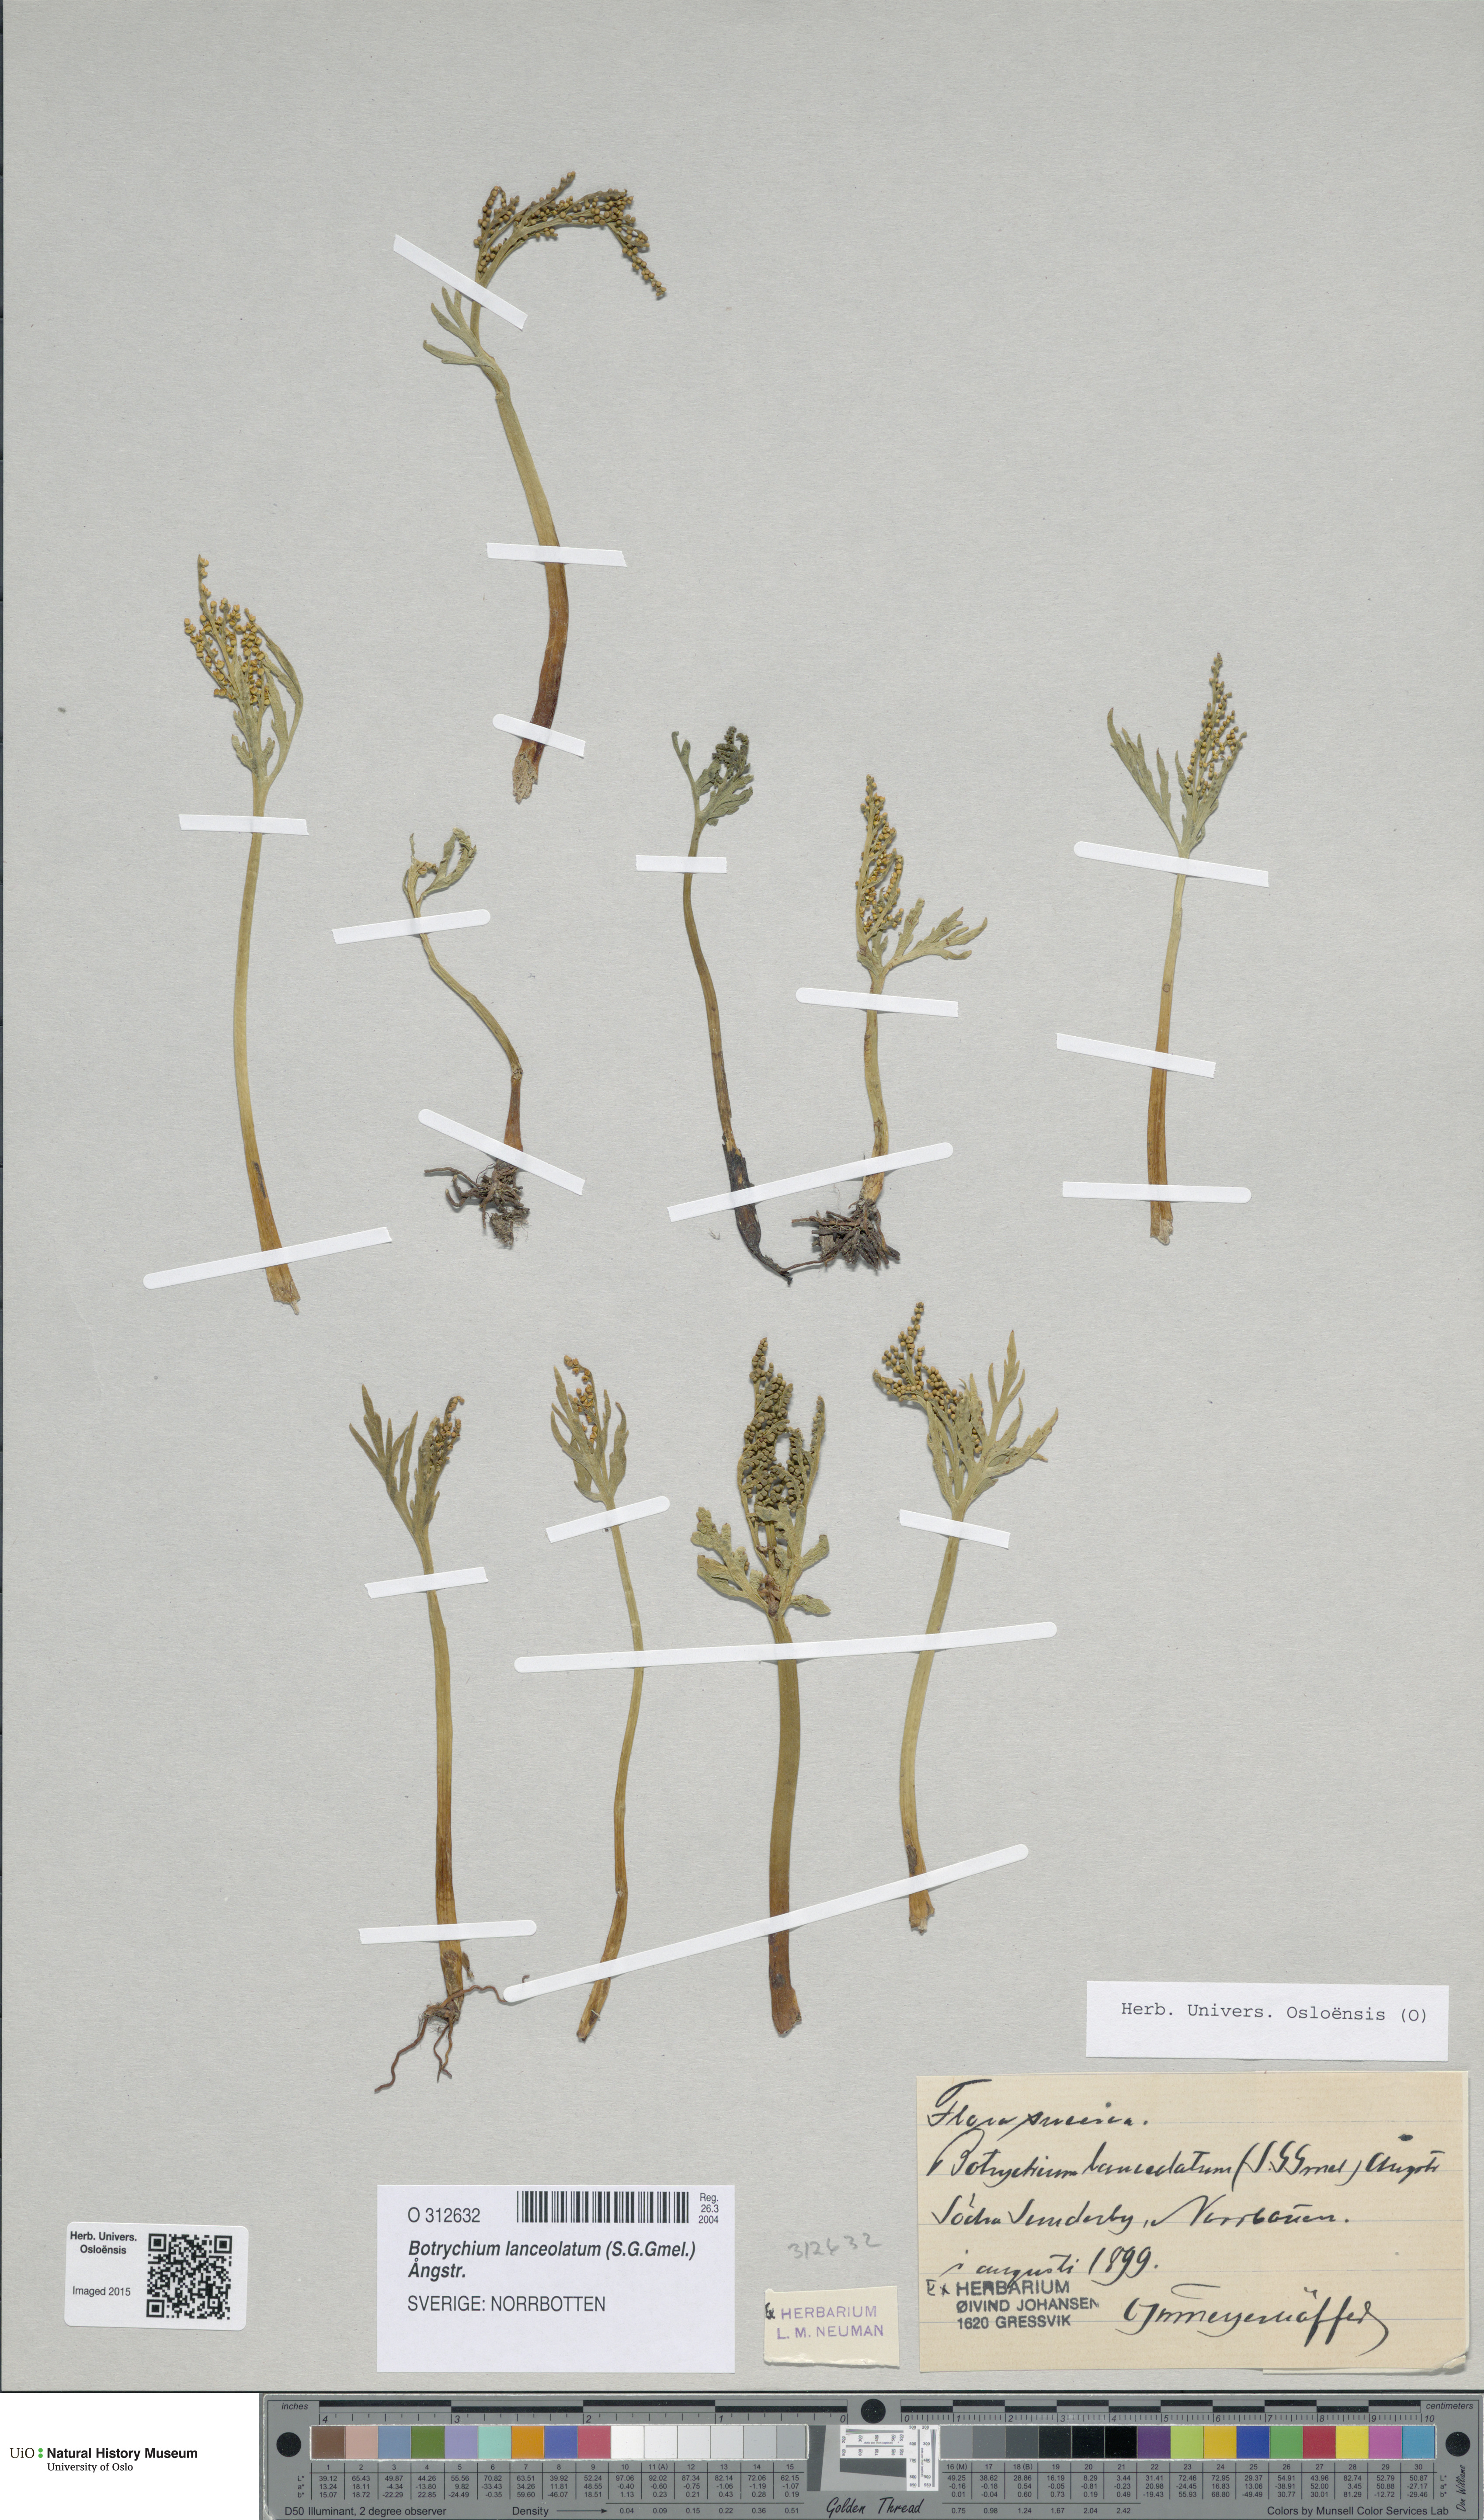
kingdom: Plantae
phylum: Tracheophyta
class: Polypodiopsida
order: Ophioglossales
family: Ophioglossaceae
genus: Botrychium
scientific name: Botrychium lanceolatum
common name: Lance-leaved moonwort
